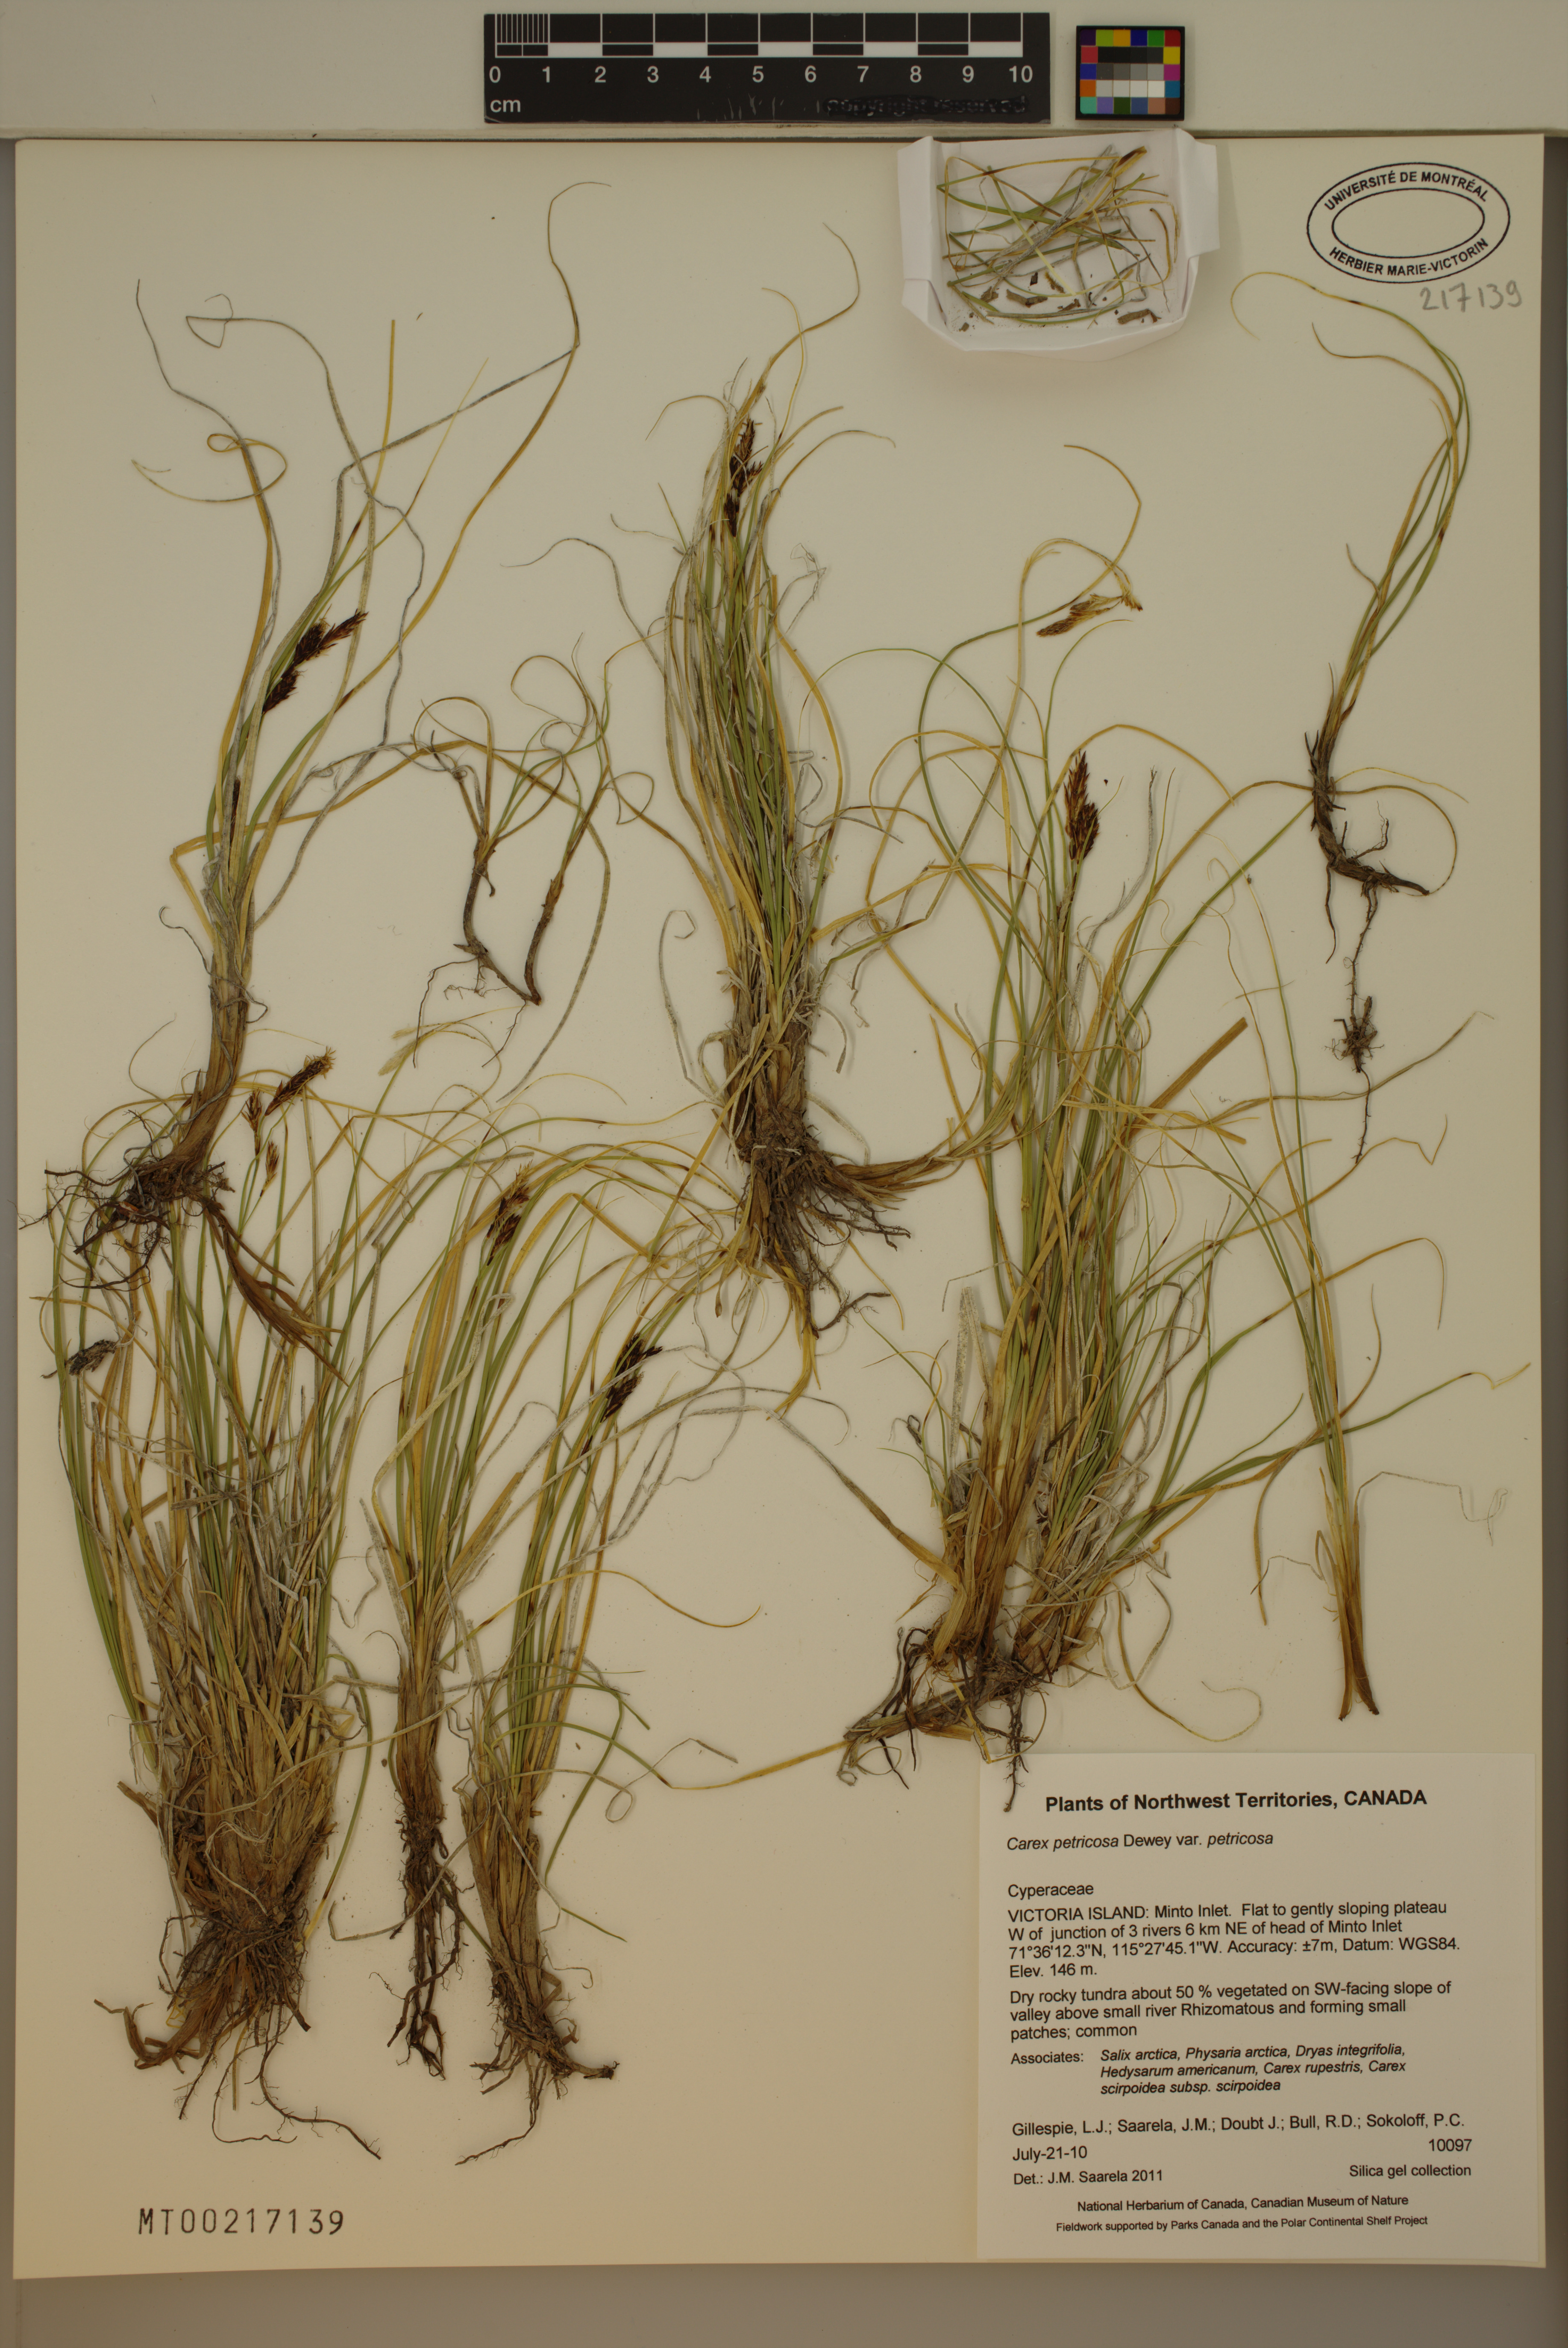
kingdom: Plantae
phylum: Tracheophyta
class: Liliopsida
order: Poales
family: Cyperaceae
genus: Carex
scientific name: Carex petricosa
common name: Rock sedge
